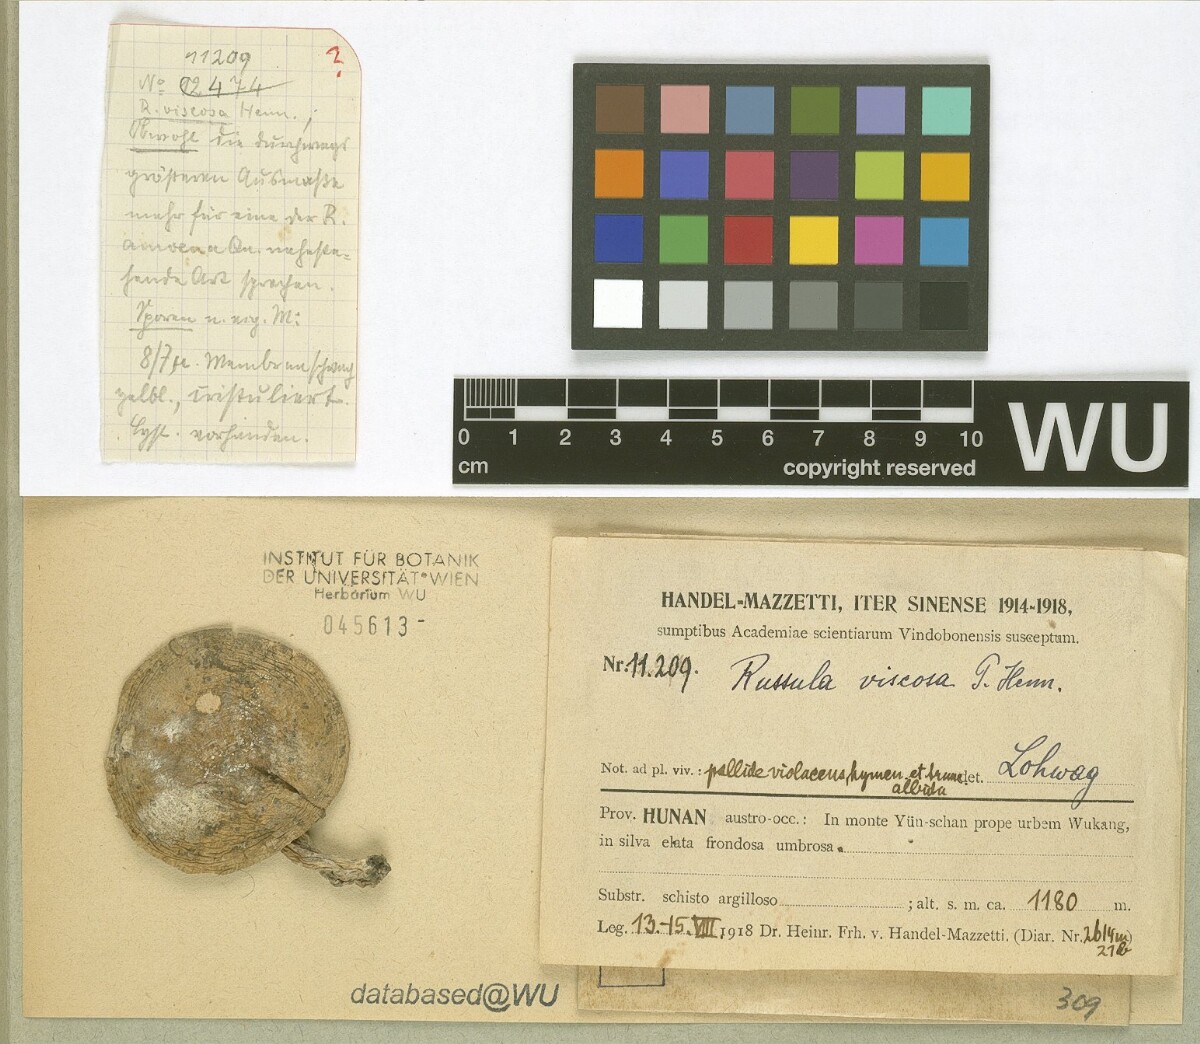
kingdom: Fungi
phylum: Basidiomycota
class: Agaricomycetes
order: Russulales
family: Russulaceae
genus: Russula
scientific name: Russula viscida
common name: Viscid brittlegill
